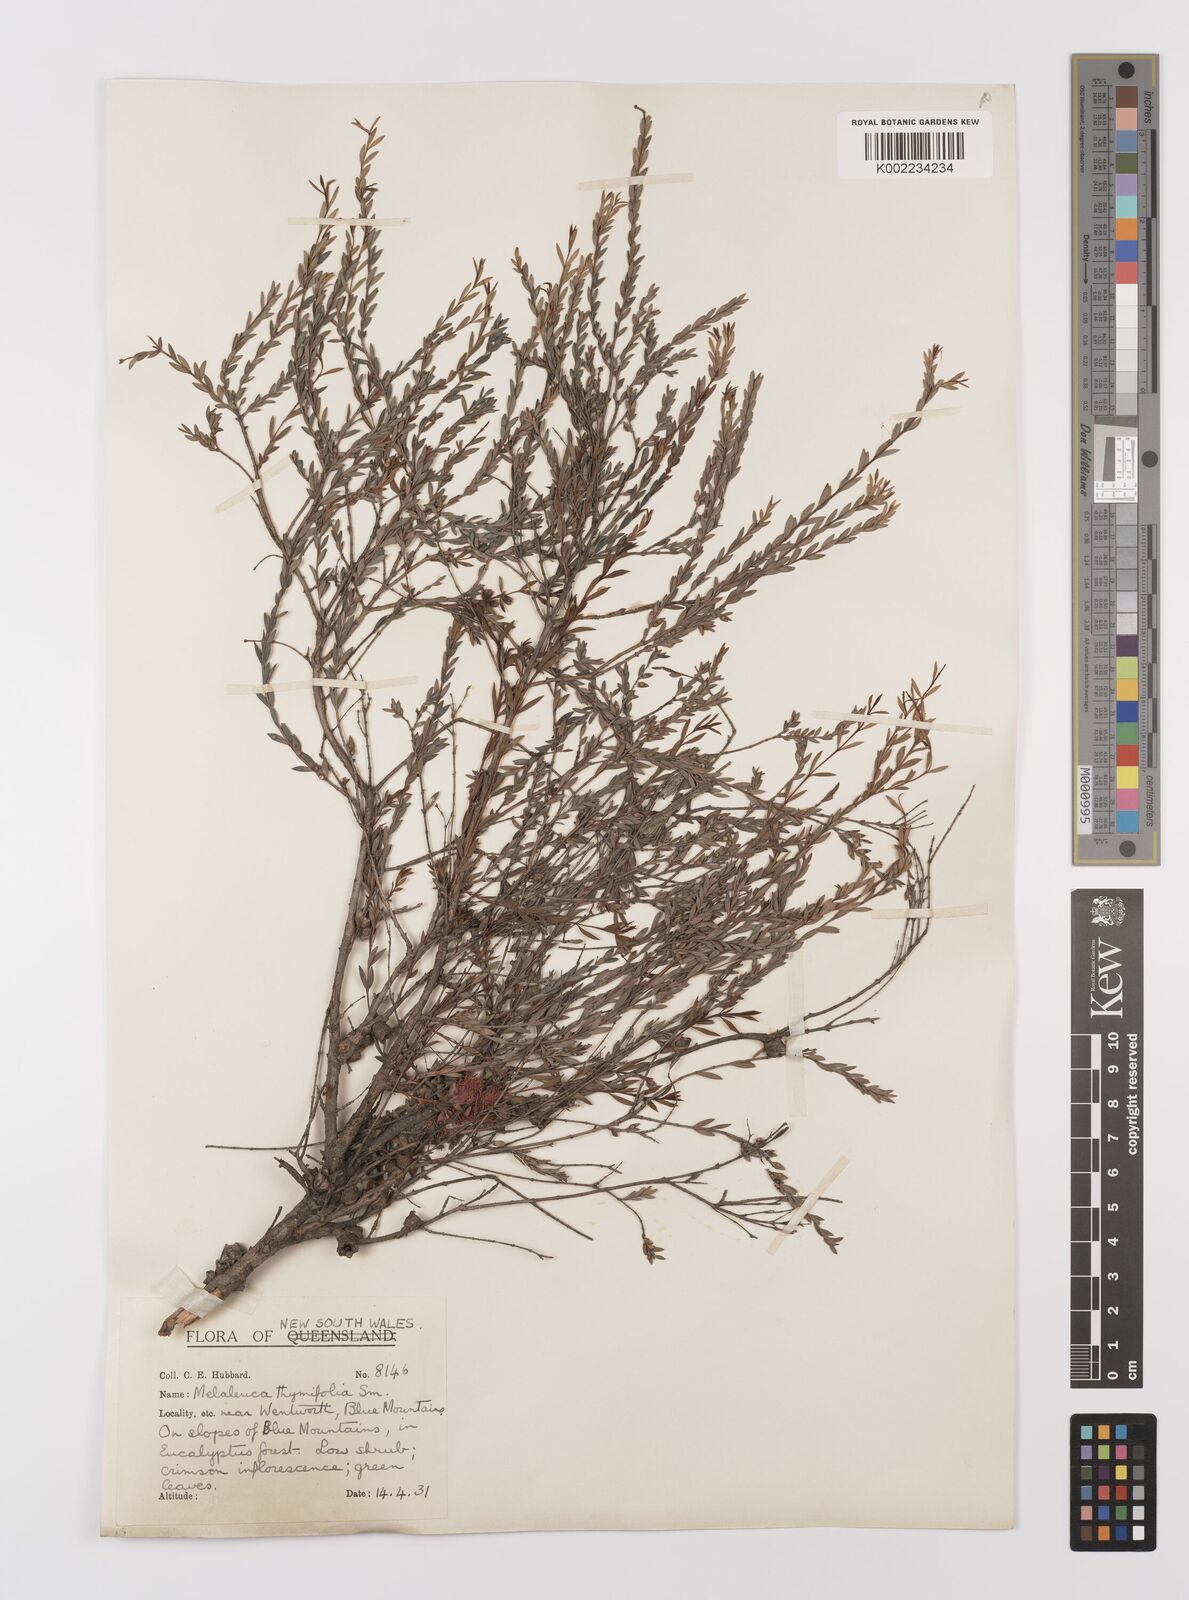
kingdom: Plantae
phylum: Tracheophyta
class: Magnoliopsida
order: Myrtales
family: Myrtaceae
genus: Melaleuca
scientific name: Melaleuca thymifolia
